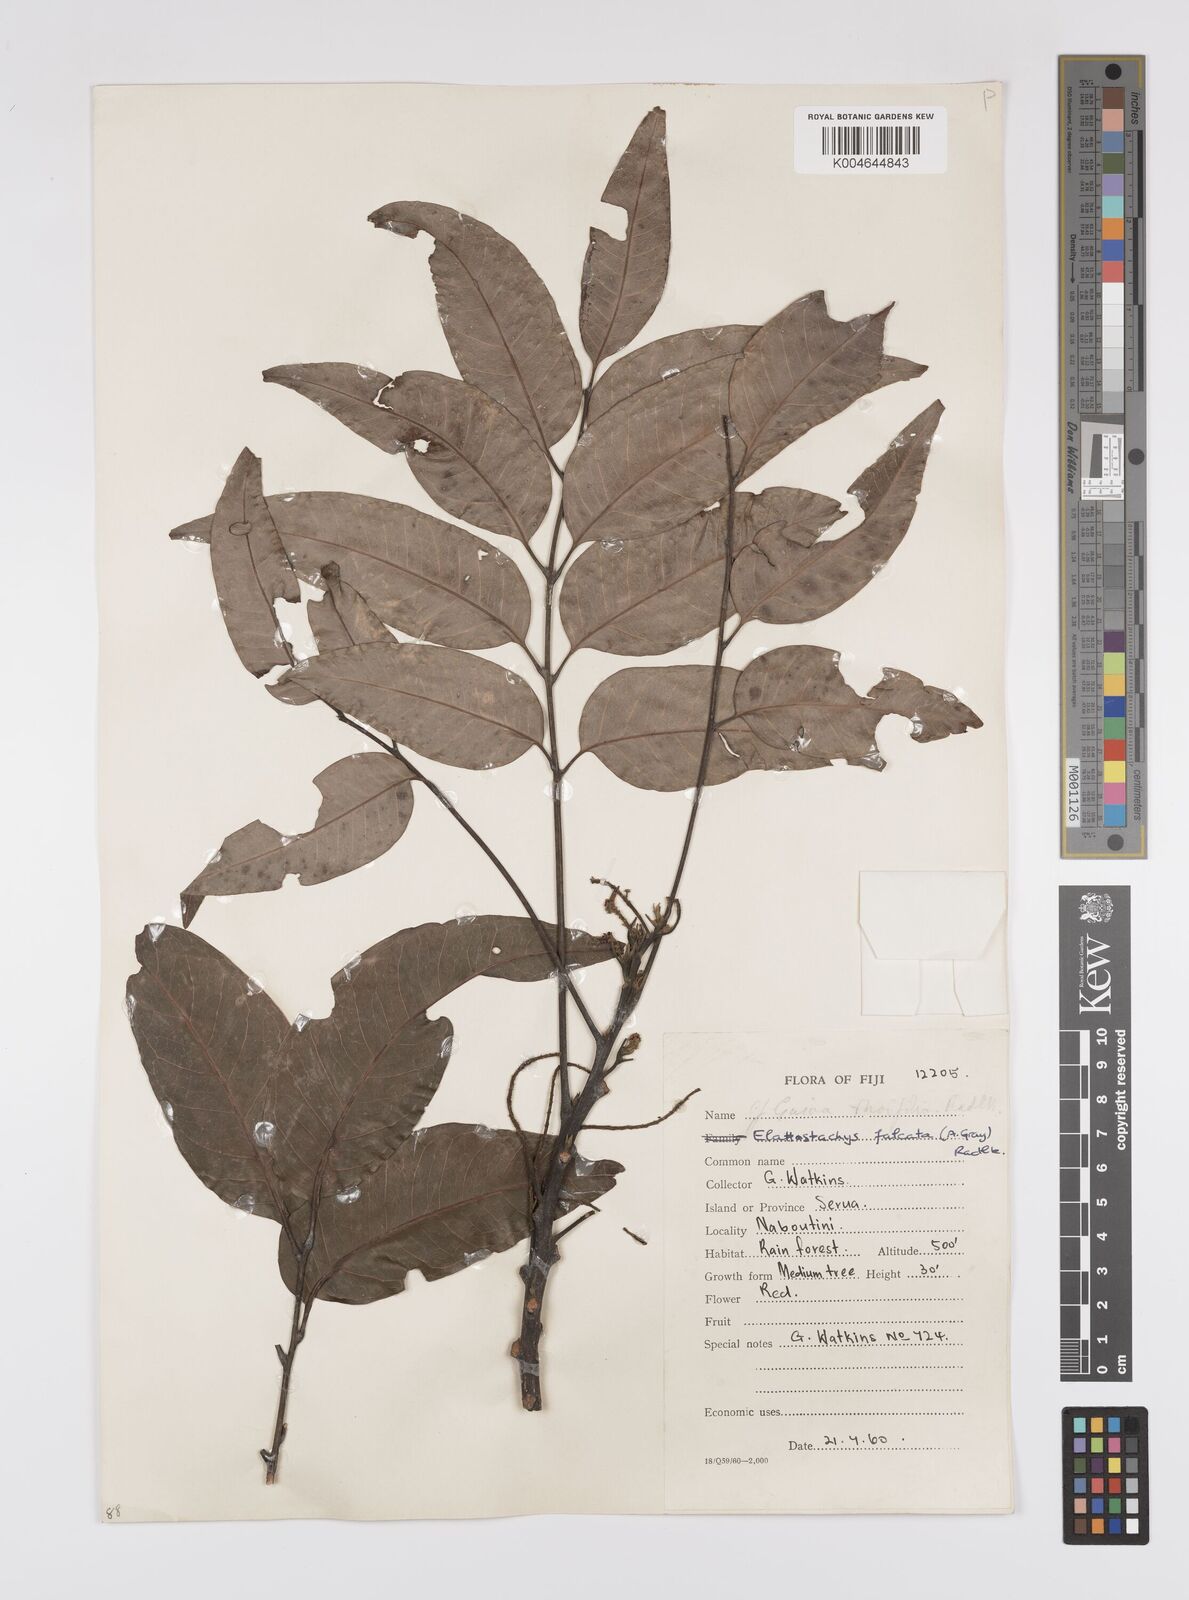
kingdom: Plantae
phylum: Tracheophyta
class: Magnoliopsida
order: Sapindales
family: Sapindaceae
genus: Elattostachys
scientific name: Elattostachys apetala
